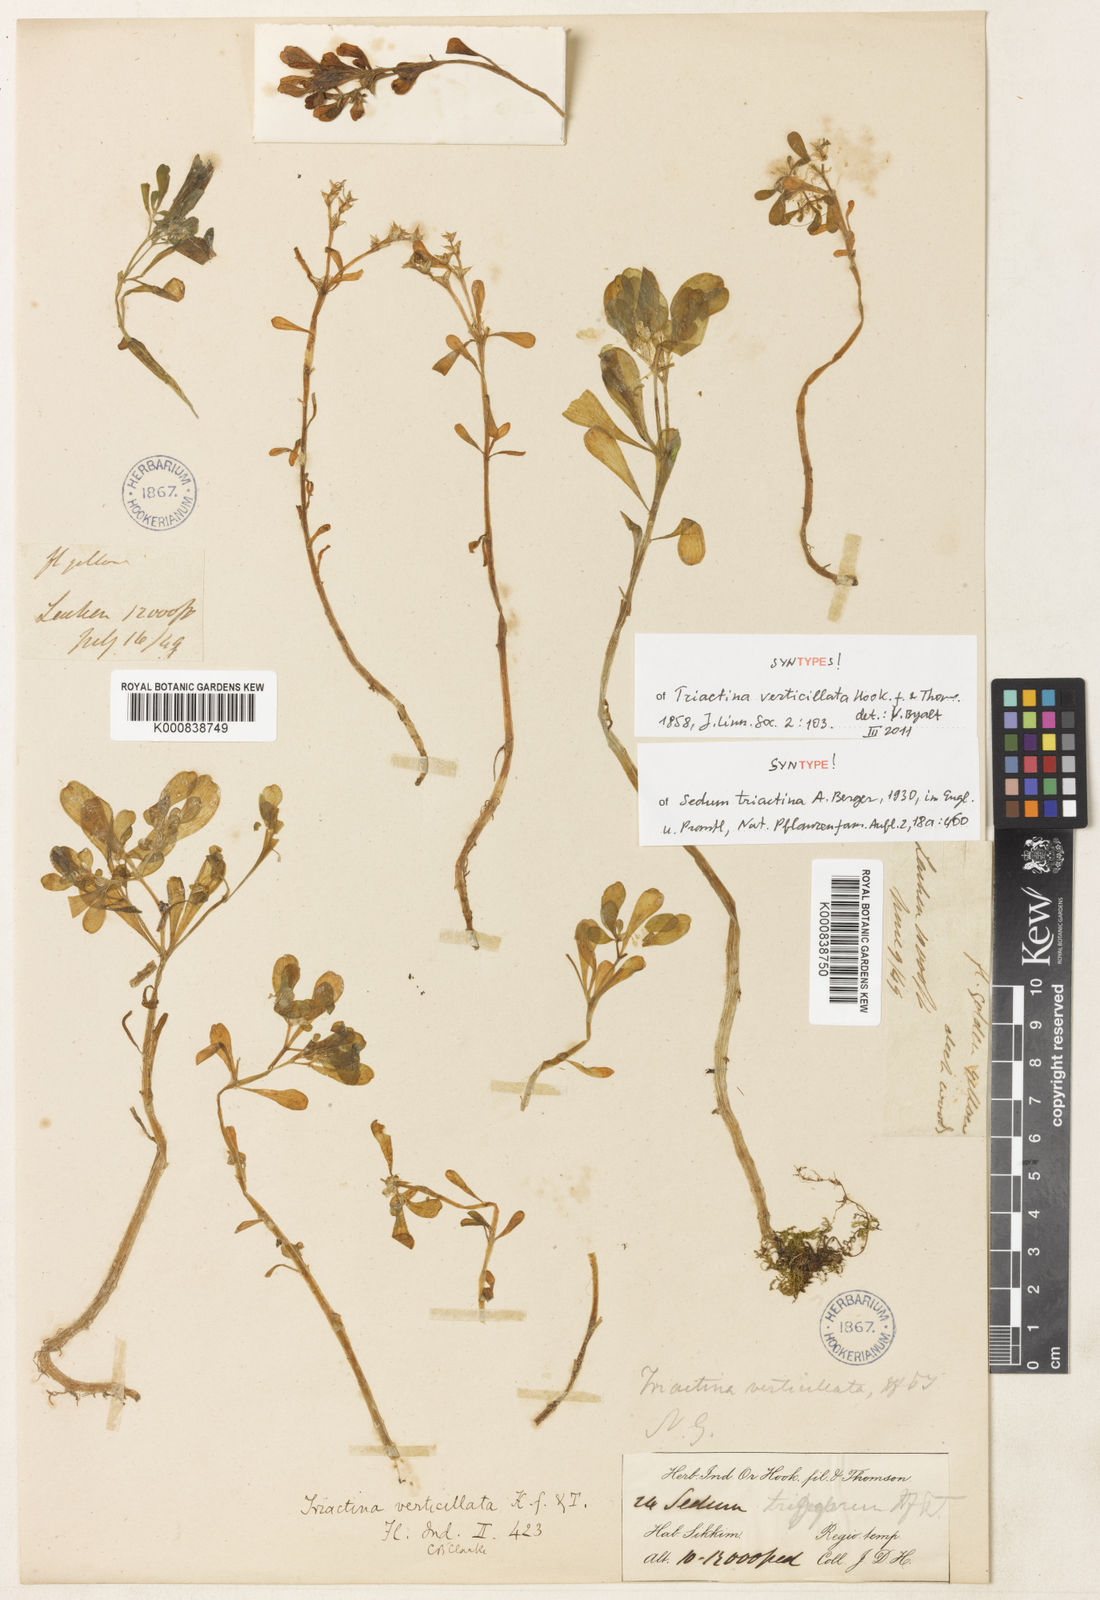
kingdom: Plantae
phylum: Tracheophyta
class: Magnoliopsida
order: Saxifragales
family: Crassulaceae
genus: Sedum
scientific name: Sedum triactina
